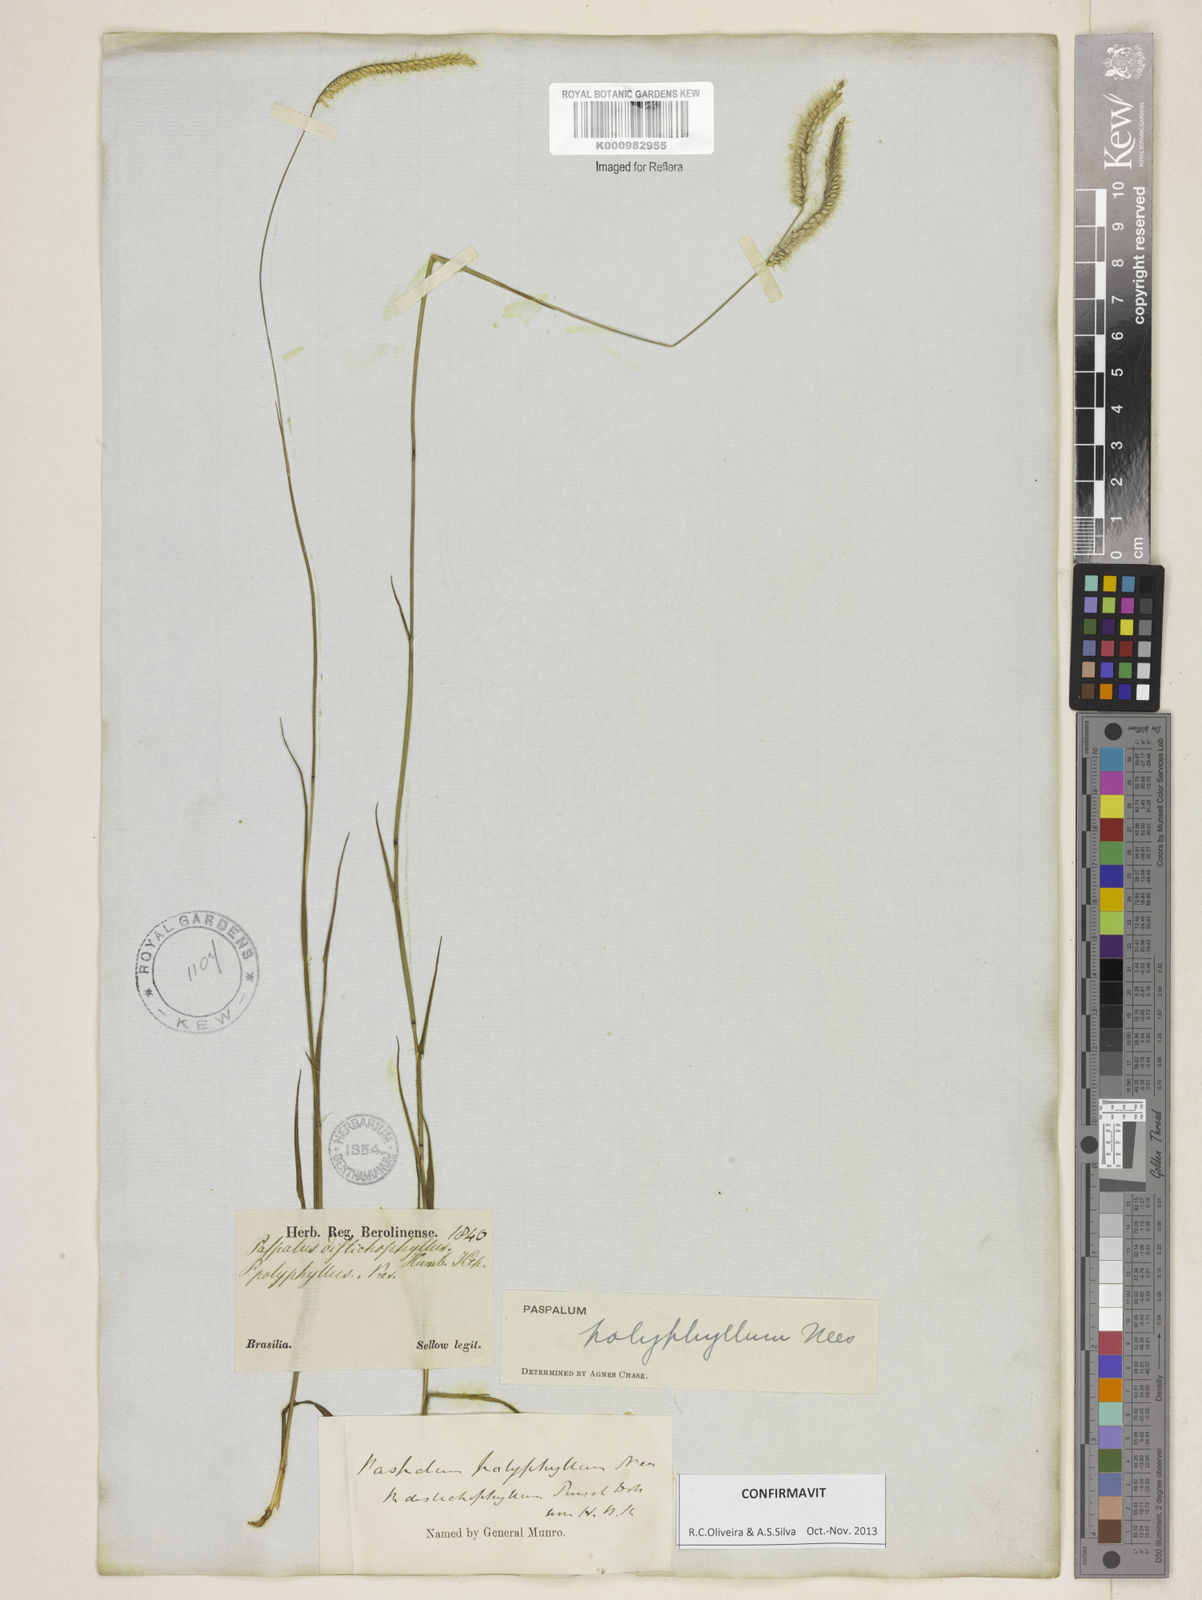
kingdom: Plantae
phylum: Tracheophyta
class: Liliopsida
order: Poales
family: Poaceae
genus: Paspalum
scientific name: Paspalum
